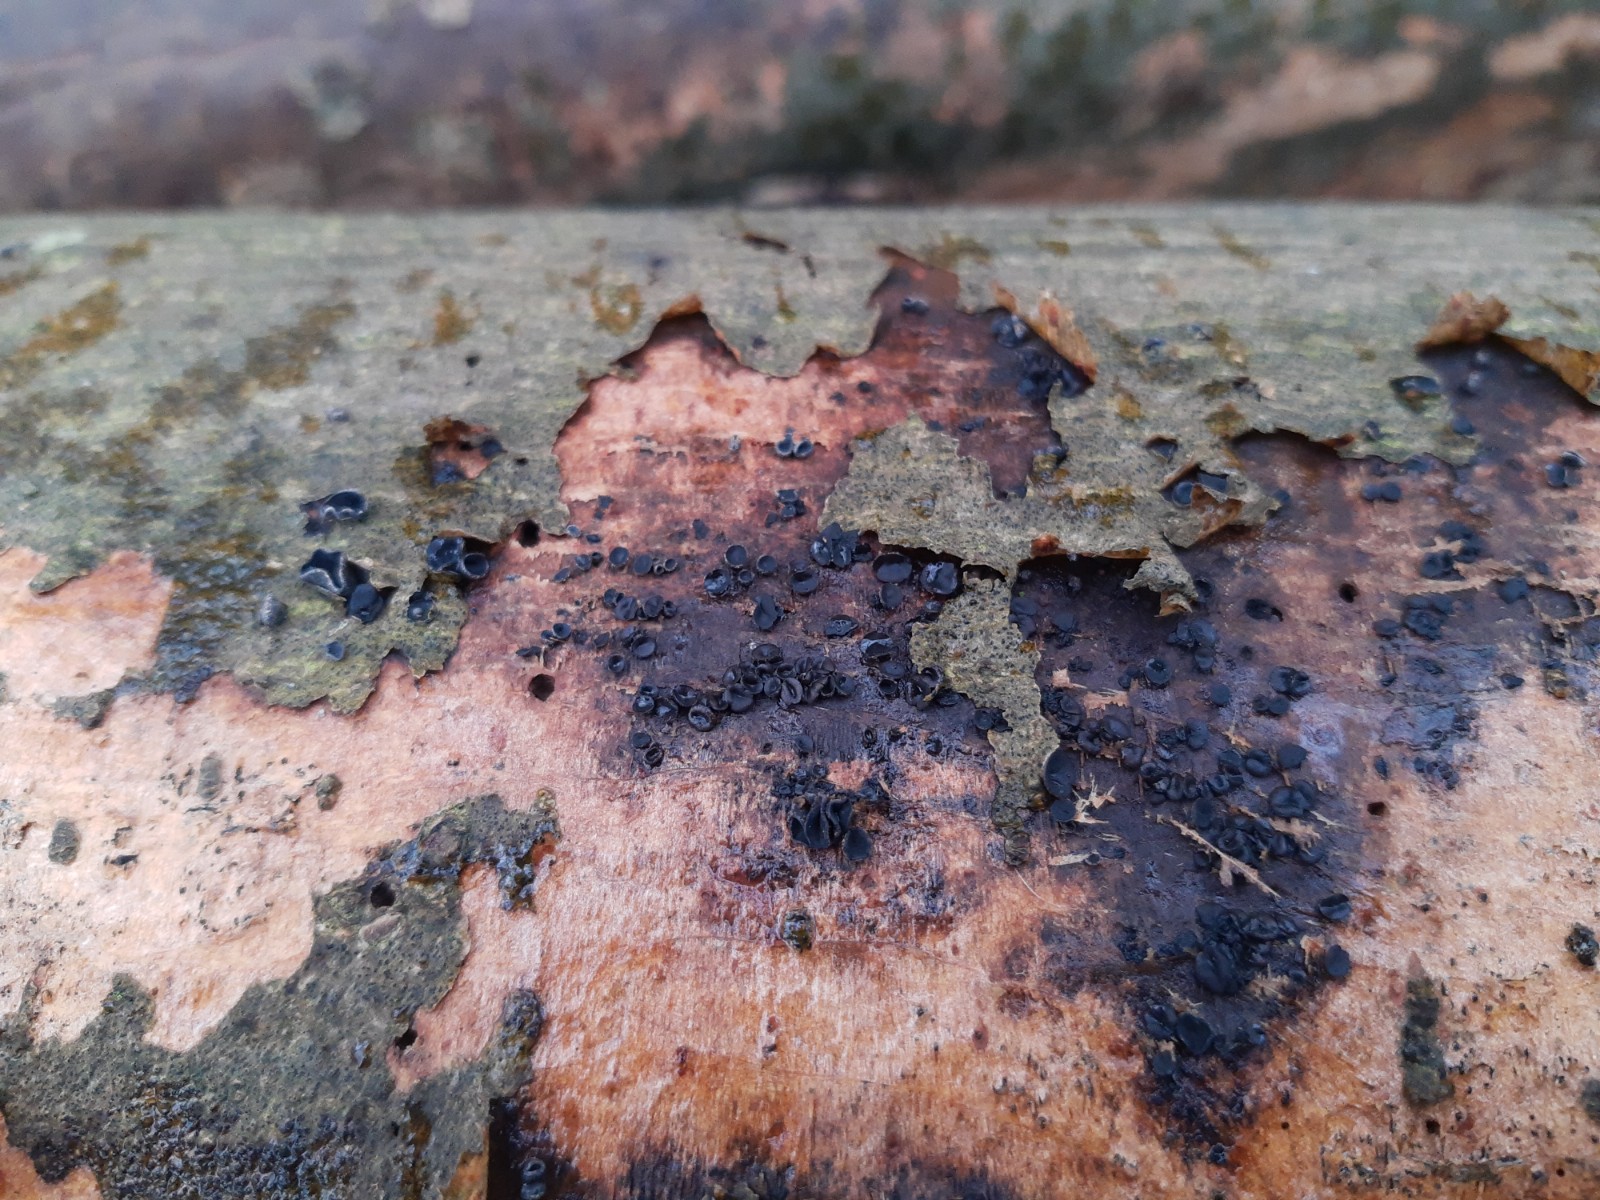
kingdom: Fungi
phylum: Ascomycota
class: Leotiomycetes
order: Helotiales
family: Sclerotiniaceae
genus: Sclerencoelia
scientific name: Sclerencoelia fraxinicola
